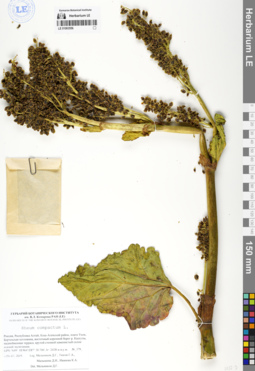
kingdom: Plantae
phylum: Tracheophyta
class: Magnoliopsida
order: Caryophyllales
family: Polygonaceae
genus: Rheum
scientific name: Rheum compactum
